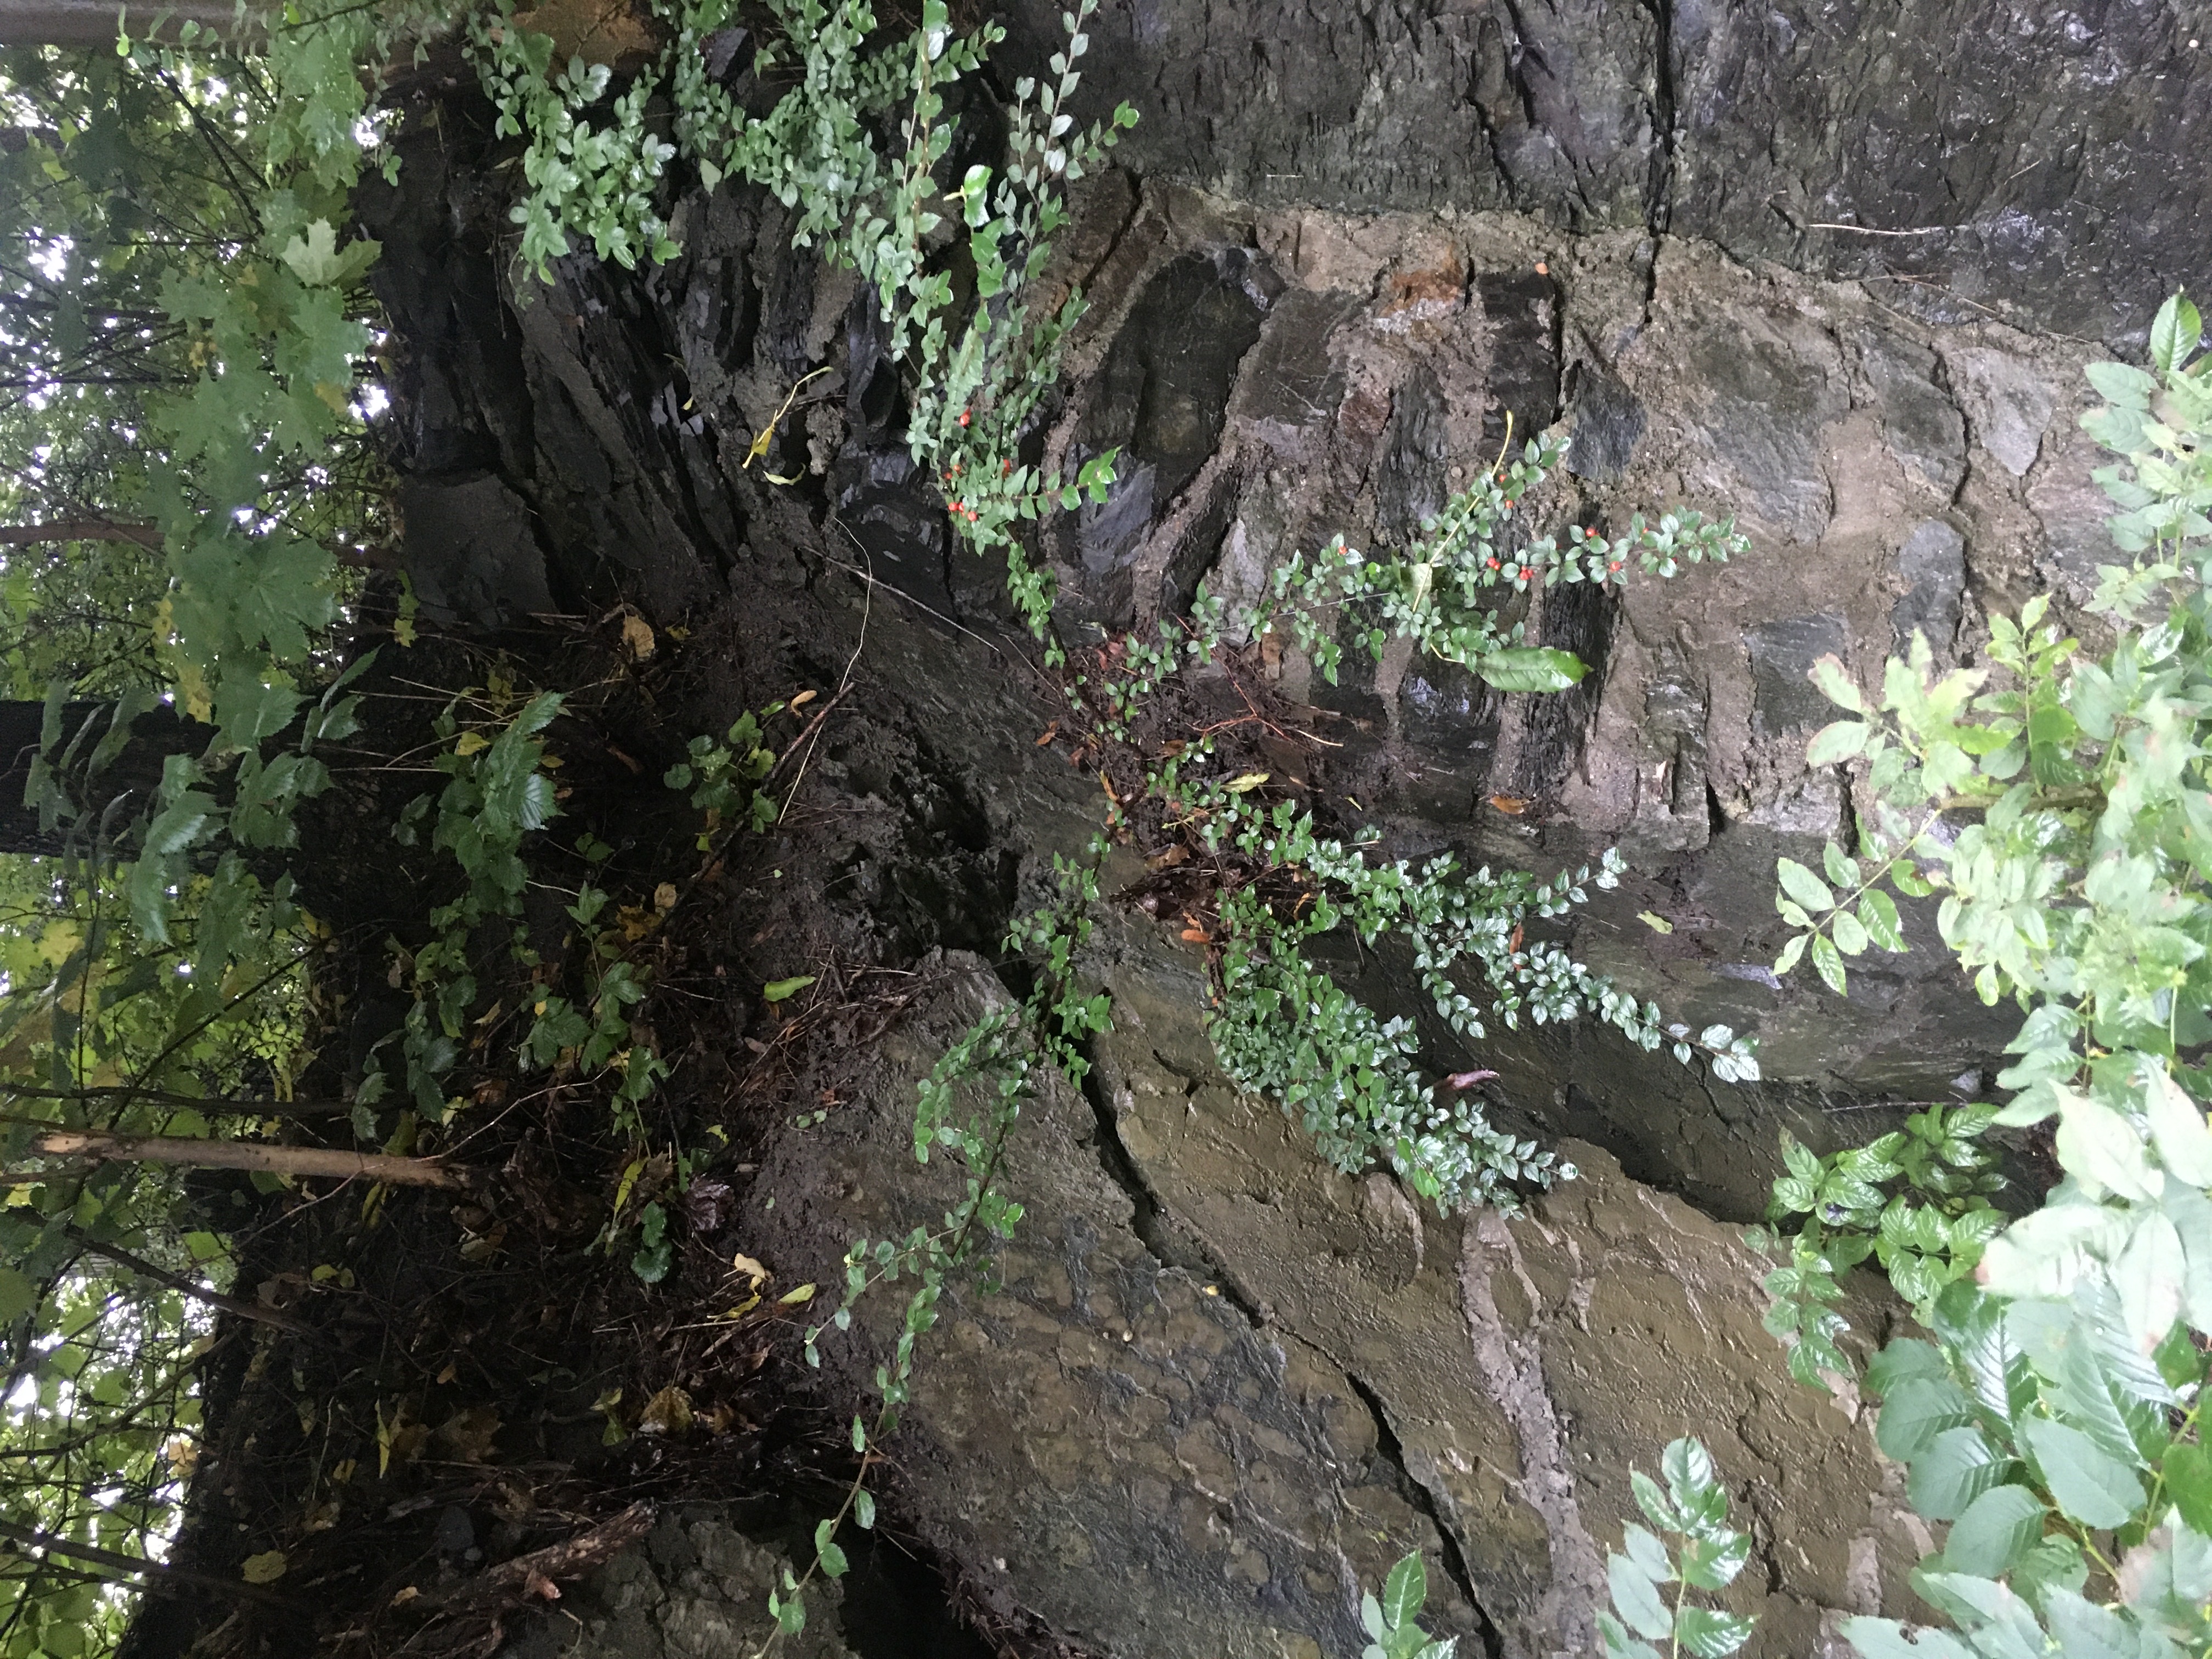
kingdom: Plantae
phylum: Tracheophyta
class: Magnoliopsida
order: Rosales
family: Rosaceae
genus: Cotoneaster
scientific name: Cotoneaster divaricatus
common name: sprikemispel
